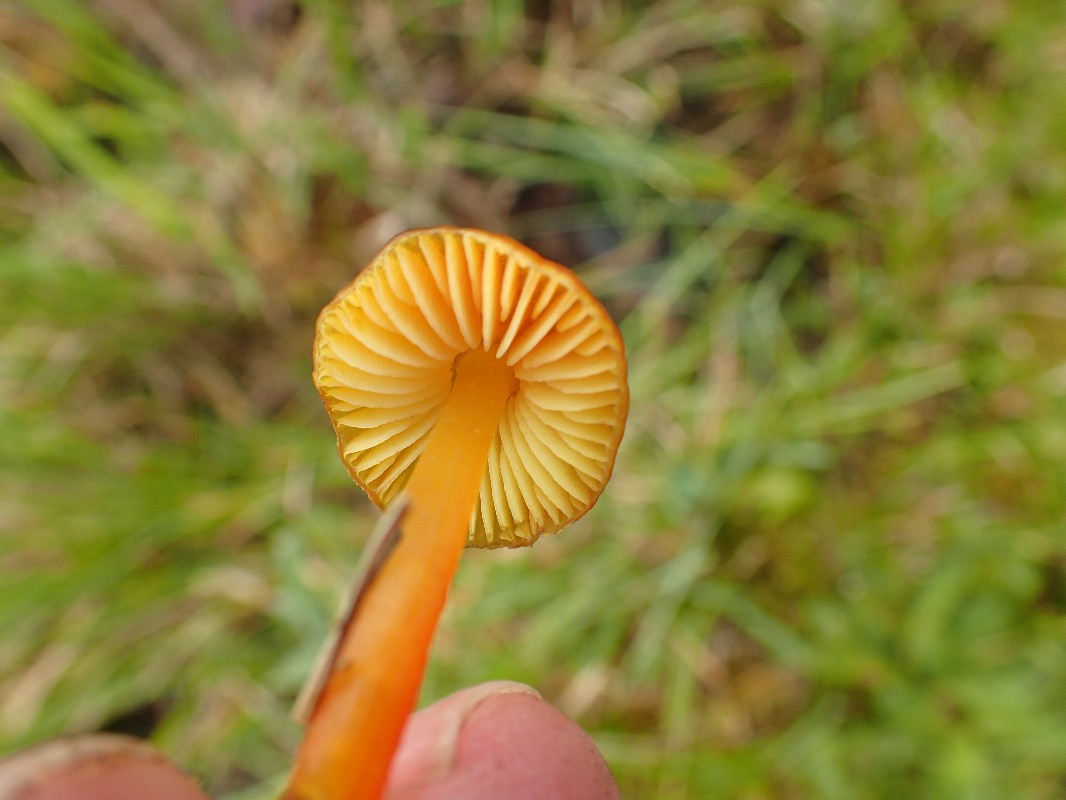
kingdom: Fungi
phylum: Basidiomycota
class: Agaricomycetes
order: Agaricales
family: Hygrophoraceae
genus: Hygrocybe
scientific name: Hygrocybe conica
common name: kegle-vokshat
